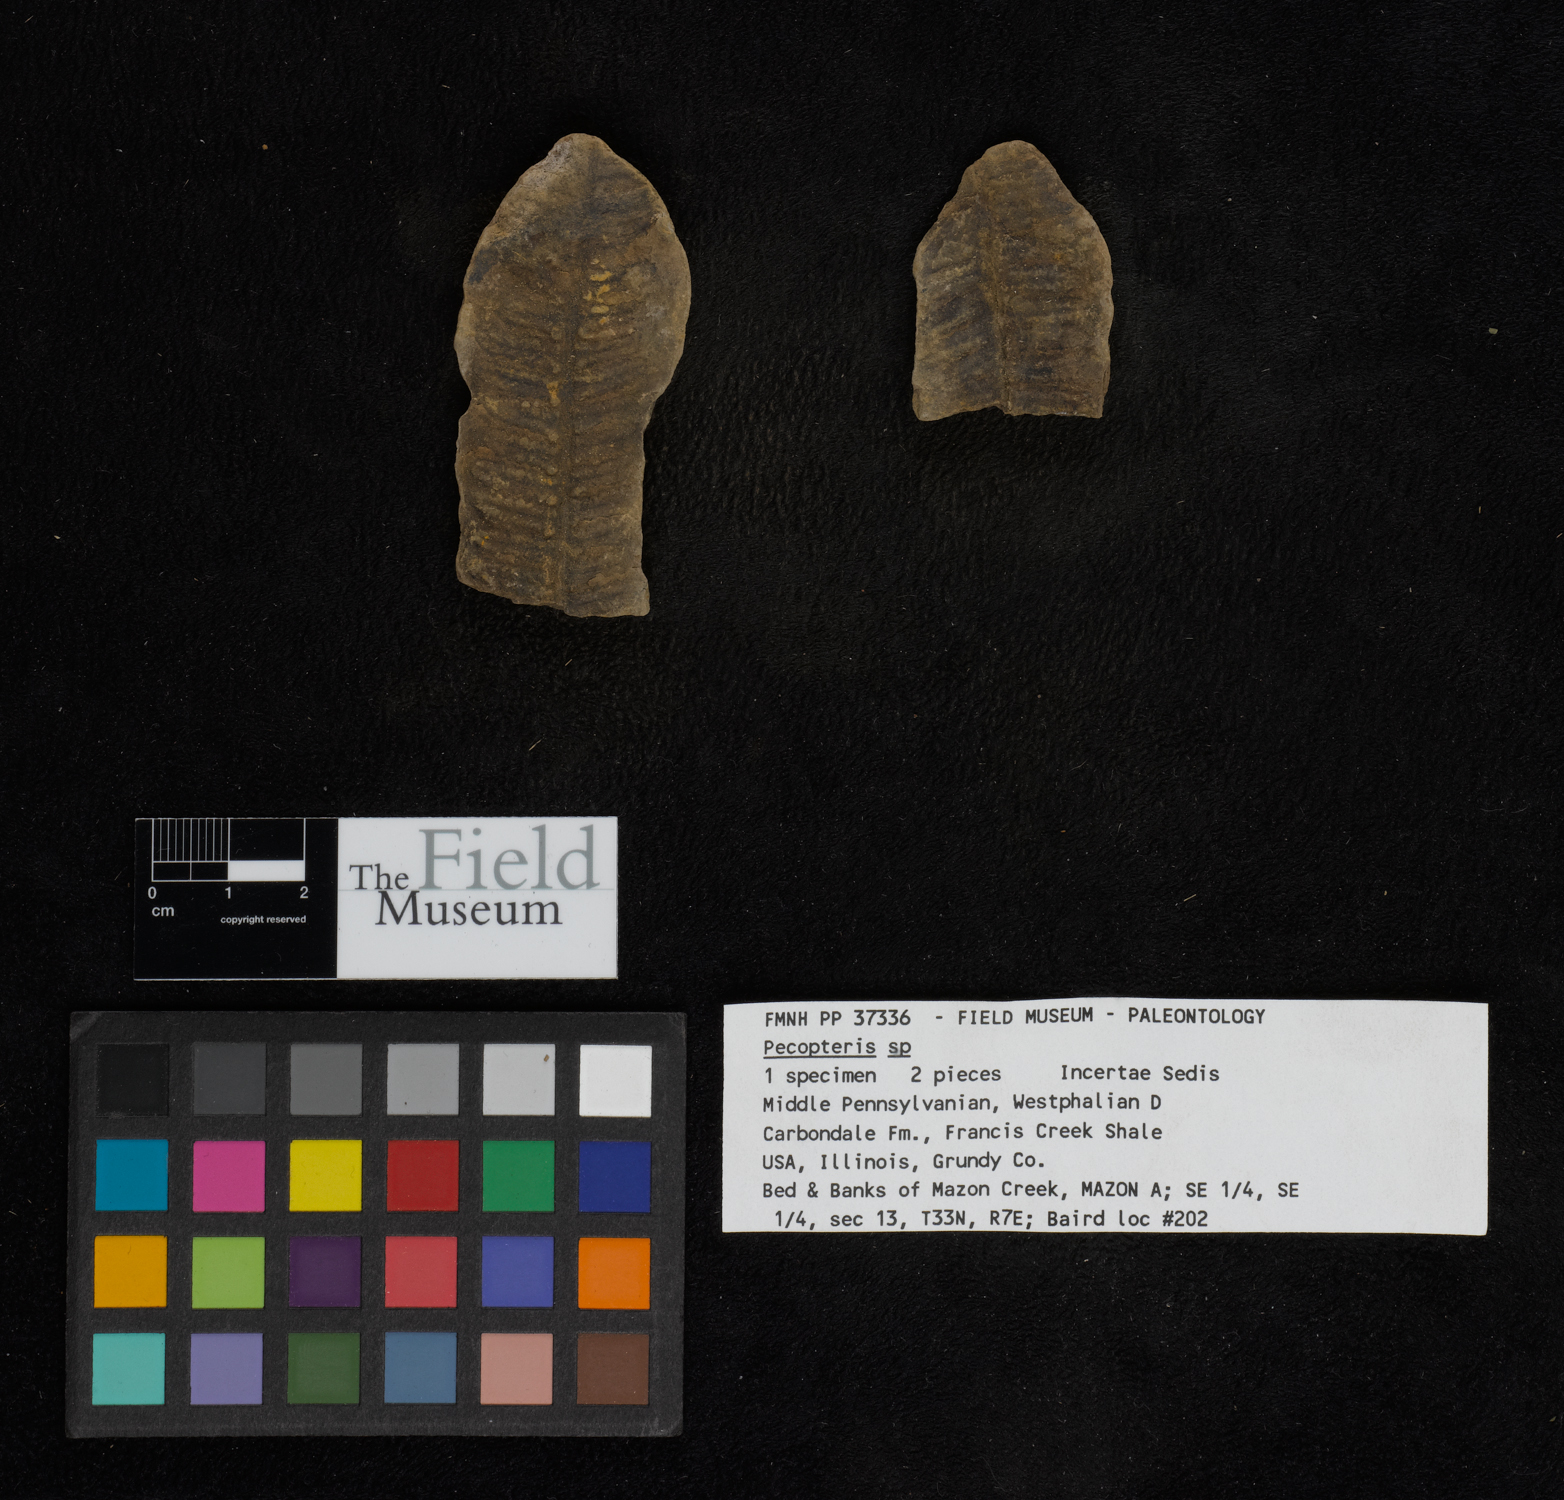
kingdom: Plantae
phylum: Tracheophyta
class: Polypodiopsida
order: Marattiales
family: Asterothecaceae
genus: Pecopteris
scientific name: Pecopteris
